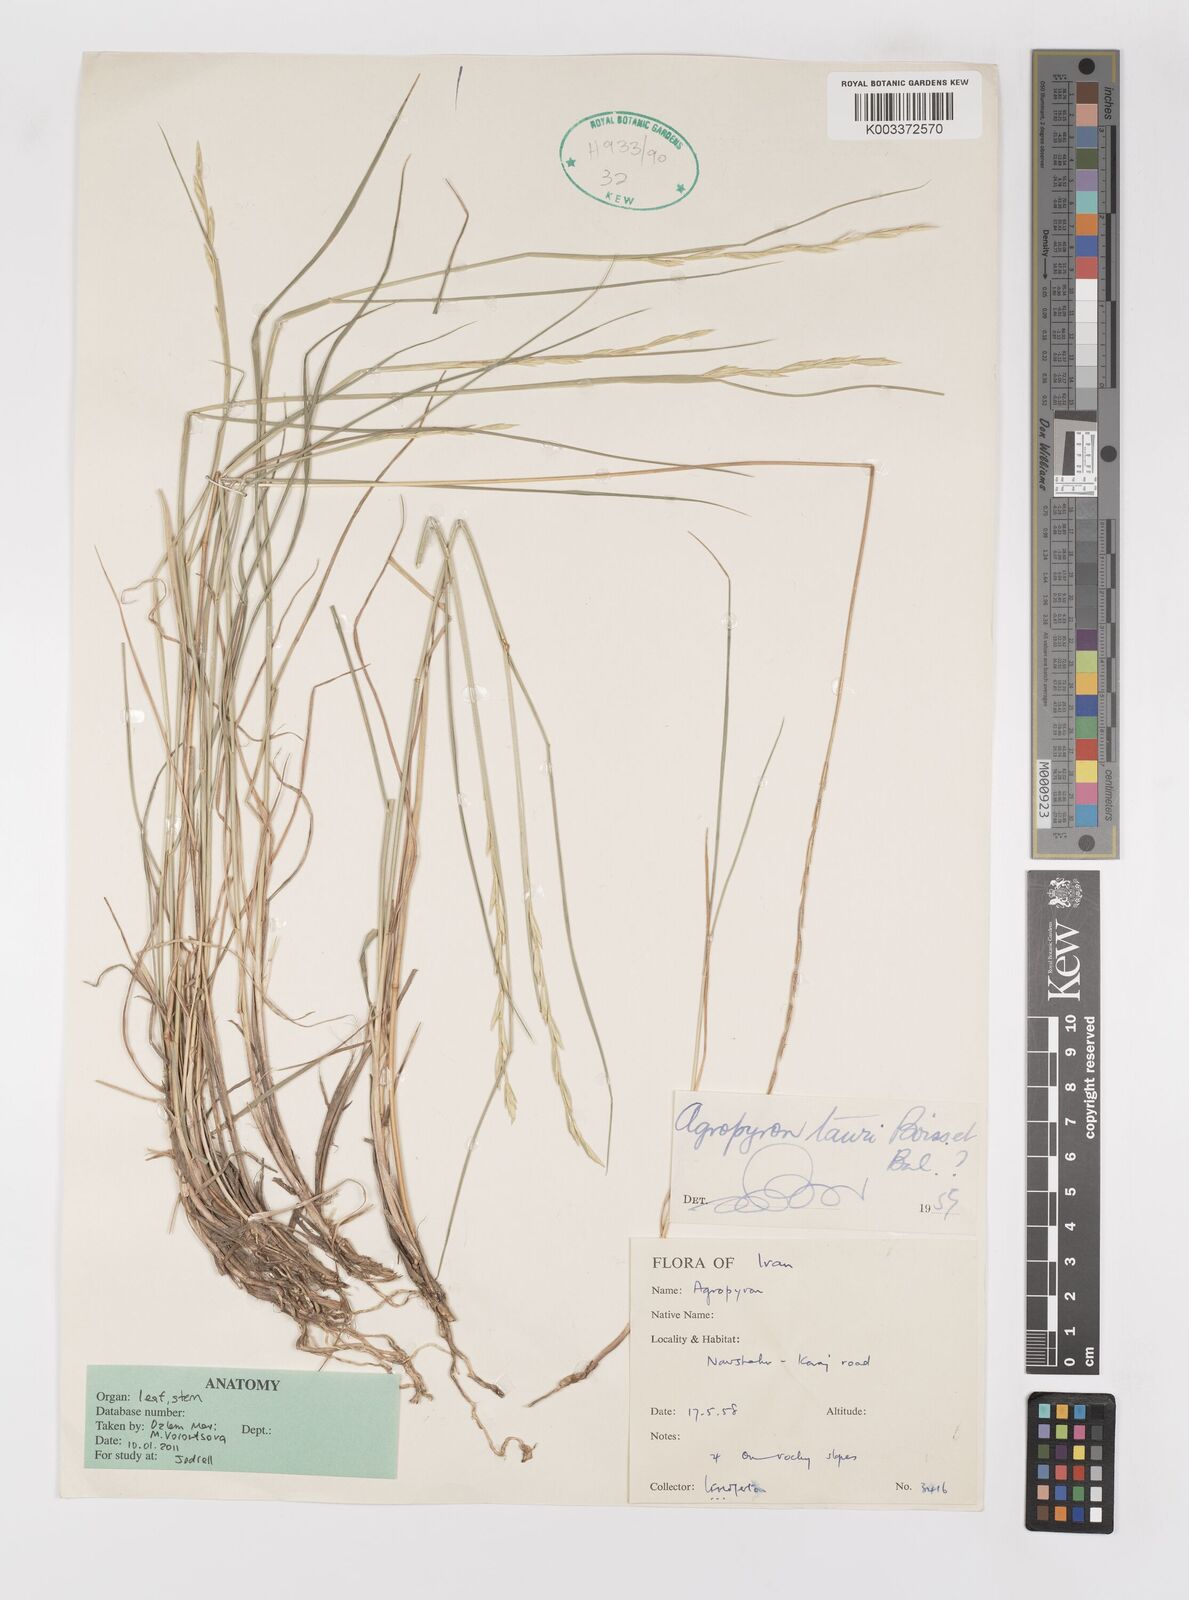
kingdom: Plantae
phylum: Tracheophyta
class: Liliopsida
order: Poales
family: Poaceae
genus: Pseudoroegneria
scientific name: Pseudoroegneria tauri
